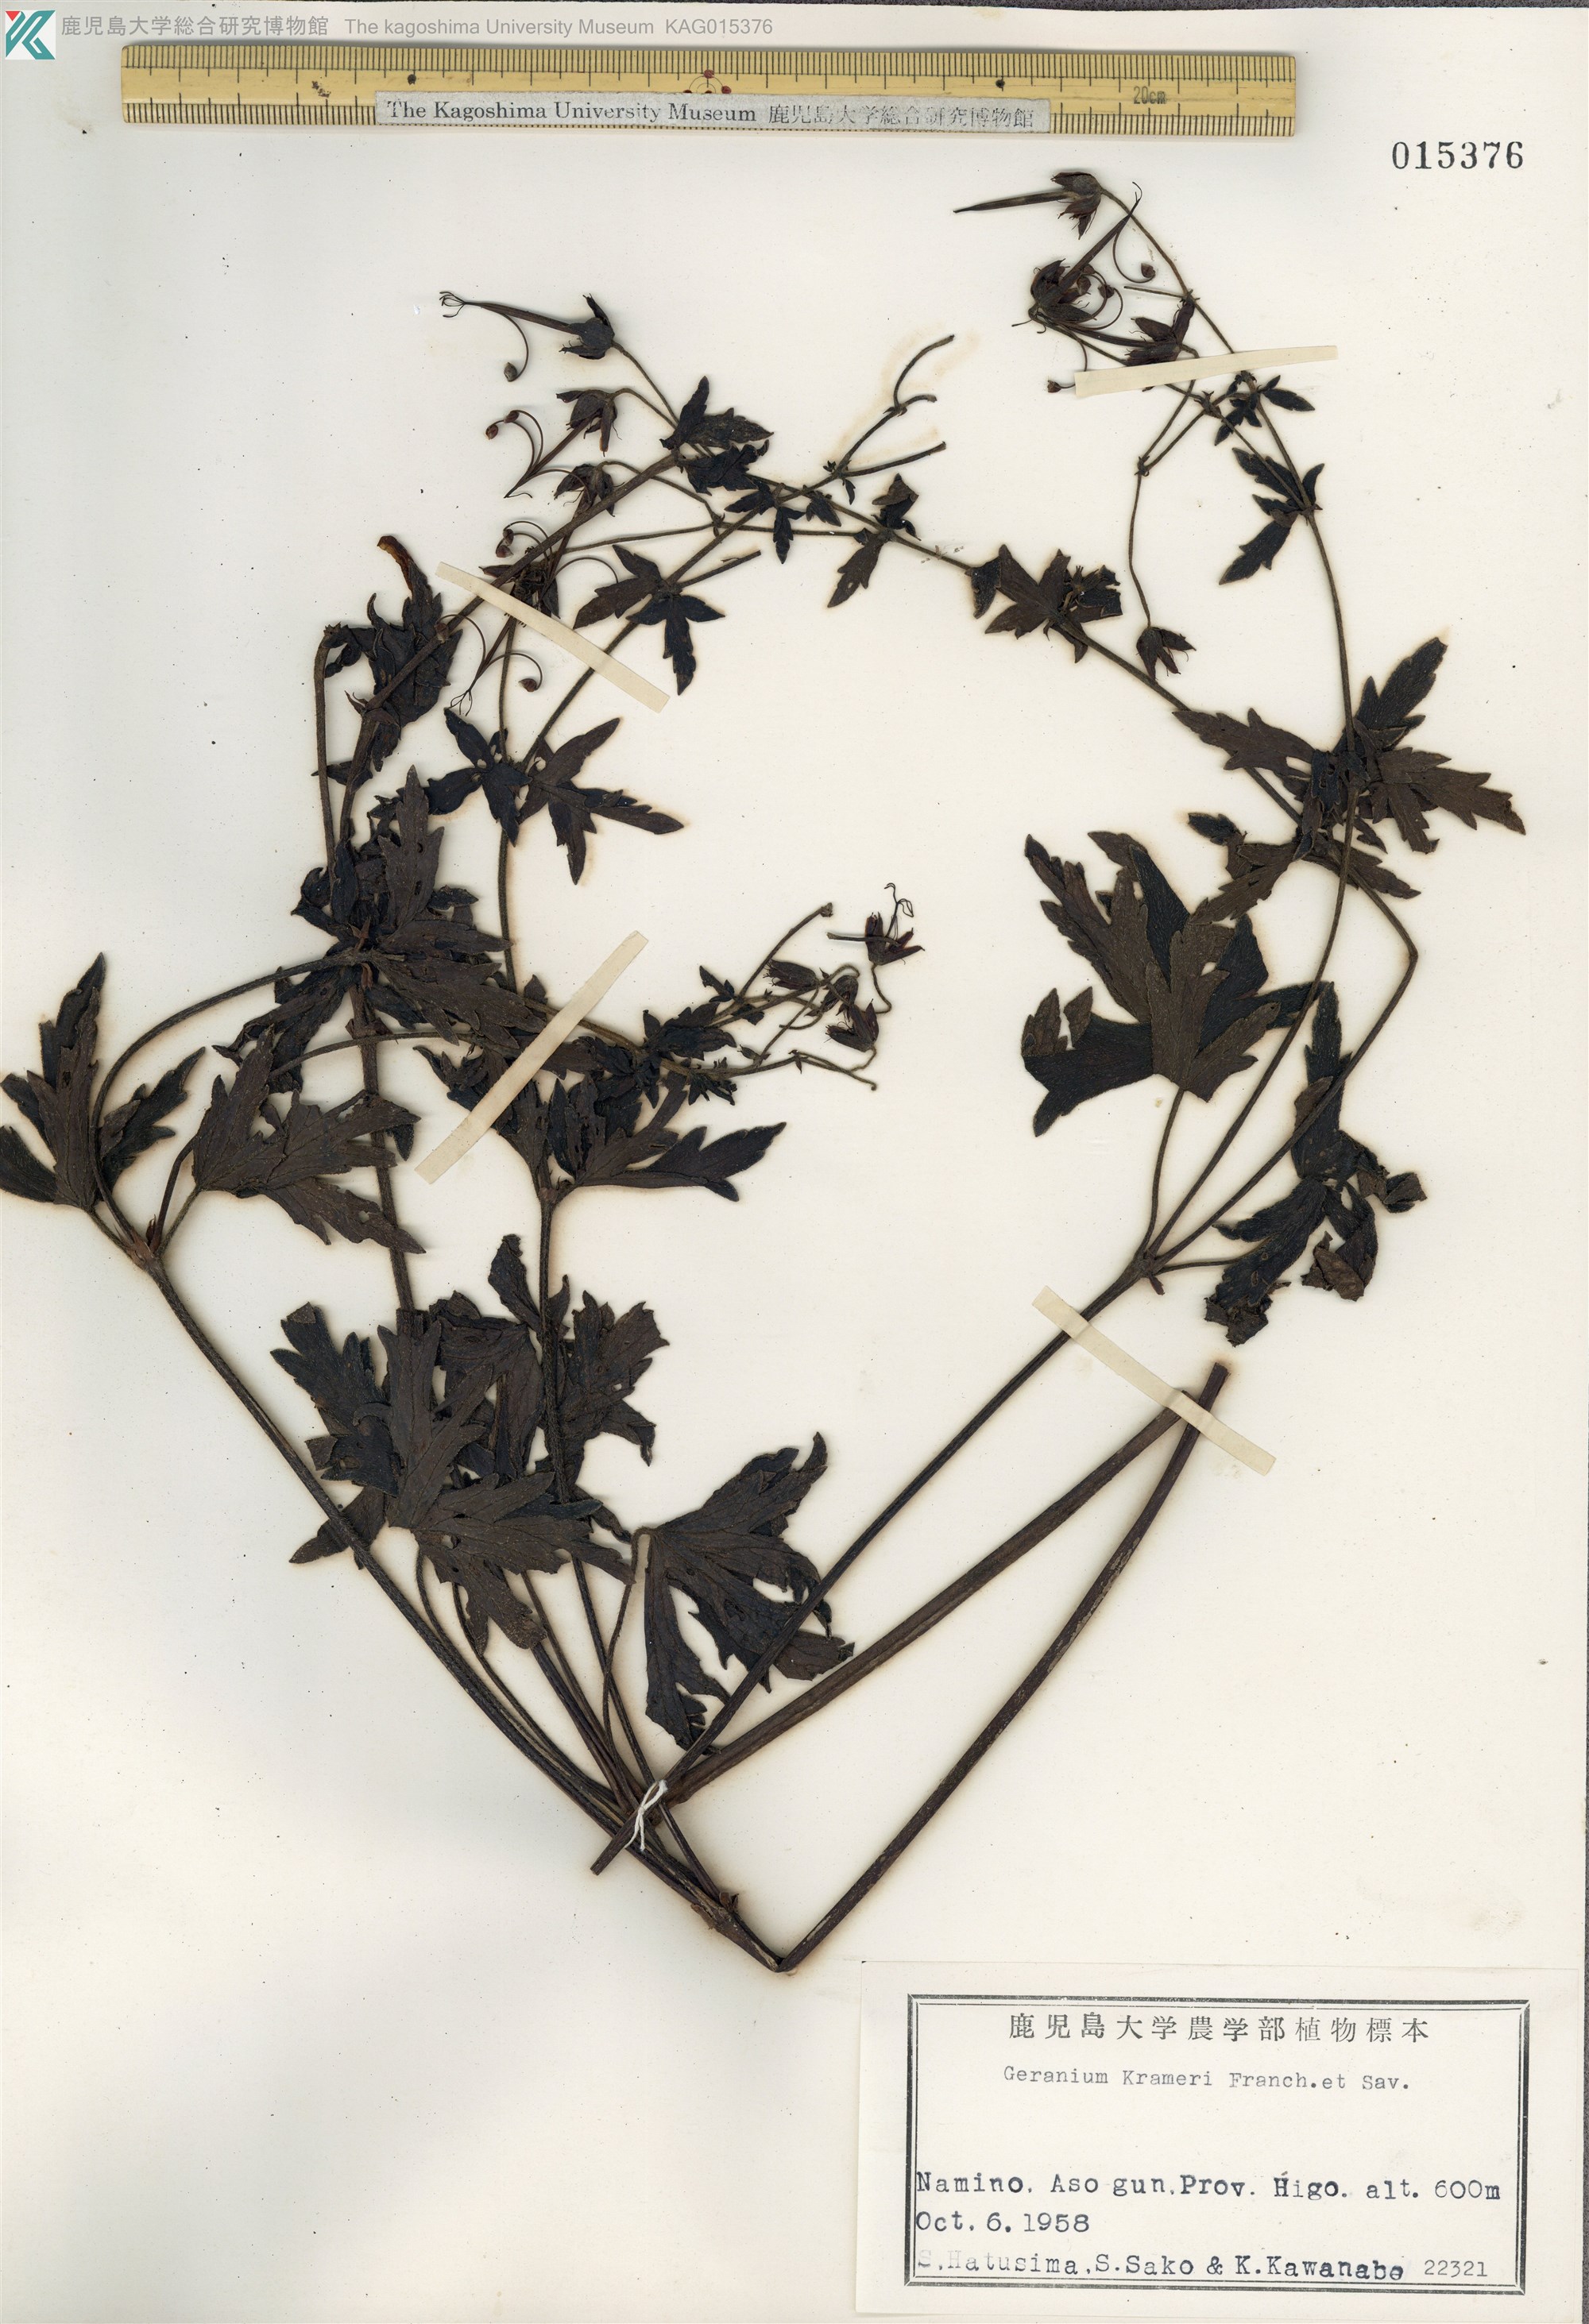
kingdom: Plantae
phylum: Tracheophyta
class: Magnoliopsida
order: Geraniales
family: Geraniaceae
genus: Geranium
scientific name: Geranium krameri
